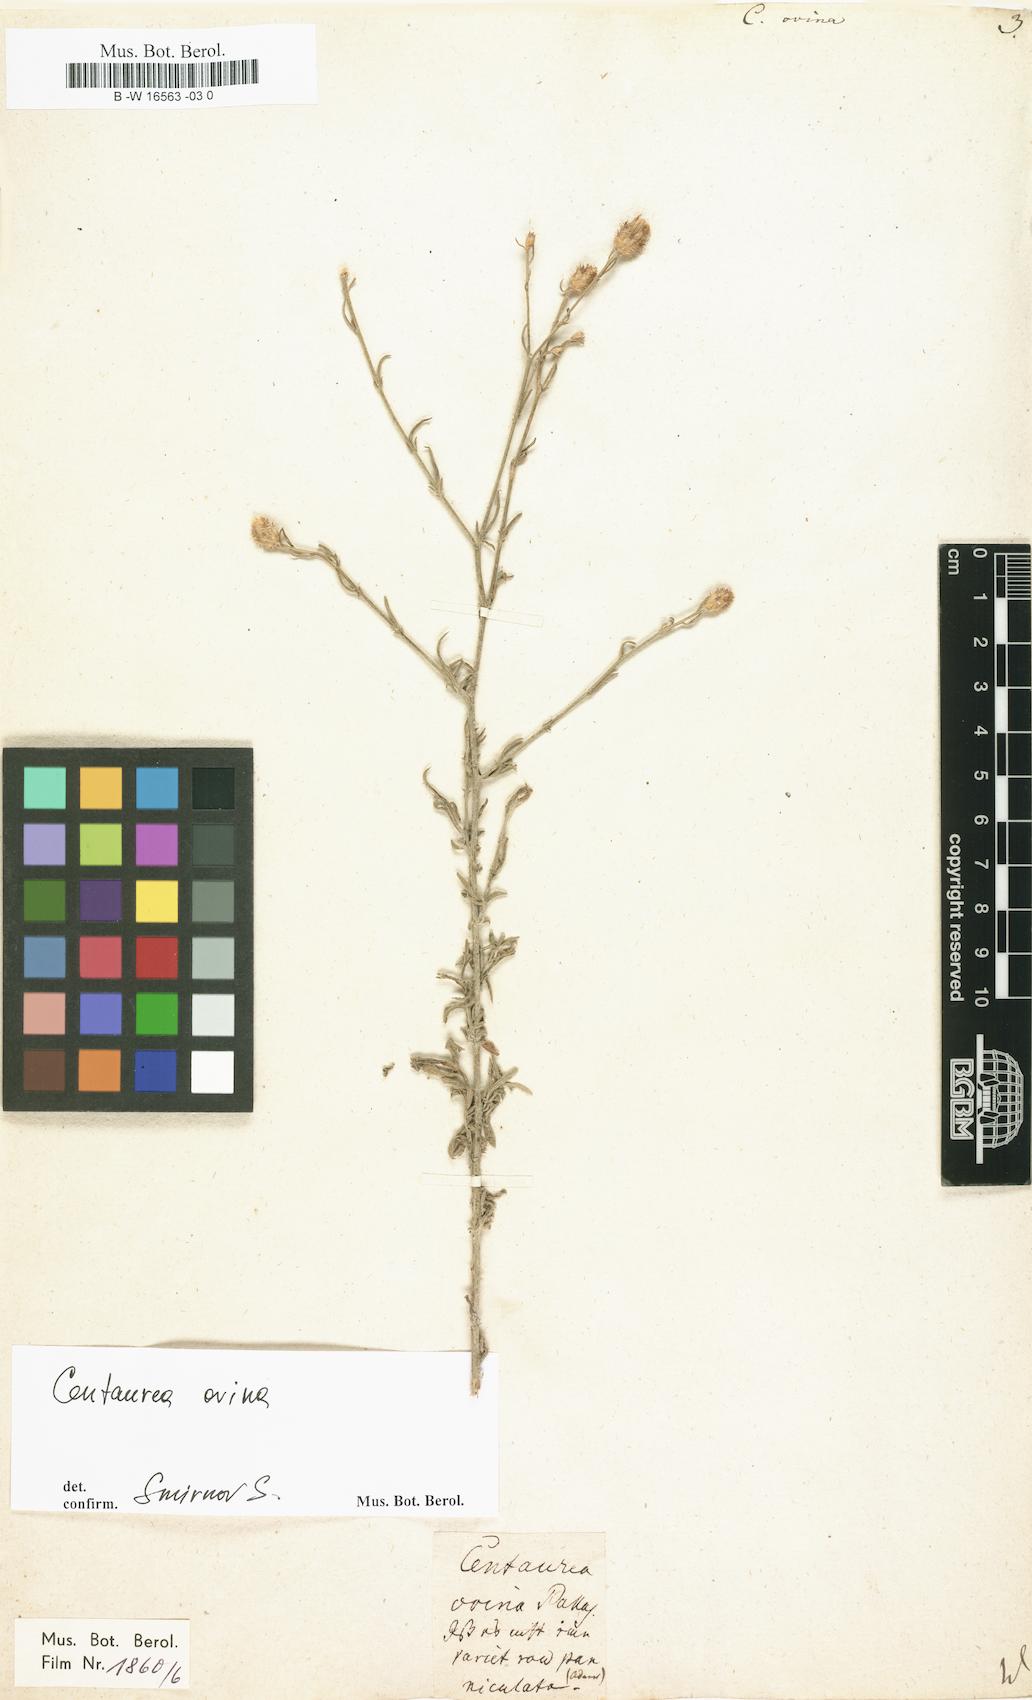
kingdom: Plantae
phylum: Tracheophyta
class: Magnoliopsida
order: Asterales
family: Asteraceae
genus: Centaurea
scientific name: Centaurea ovina
